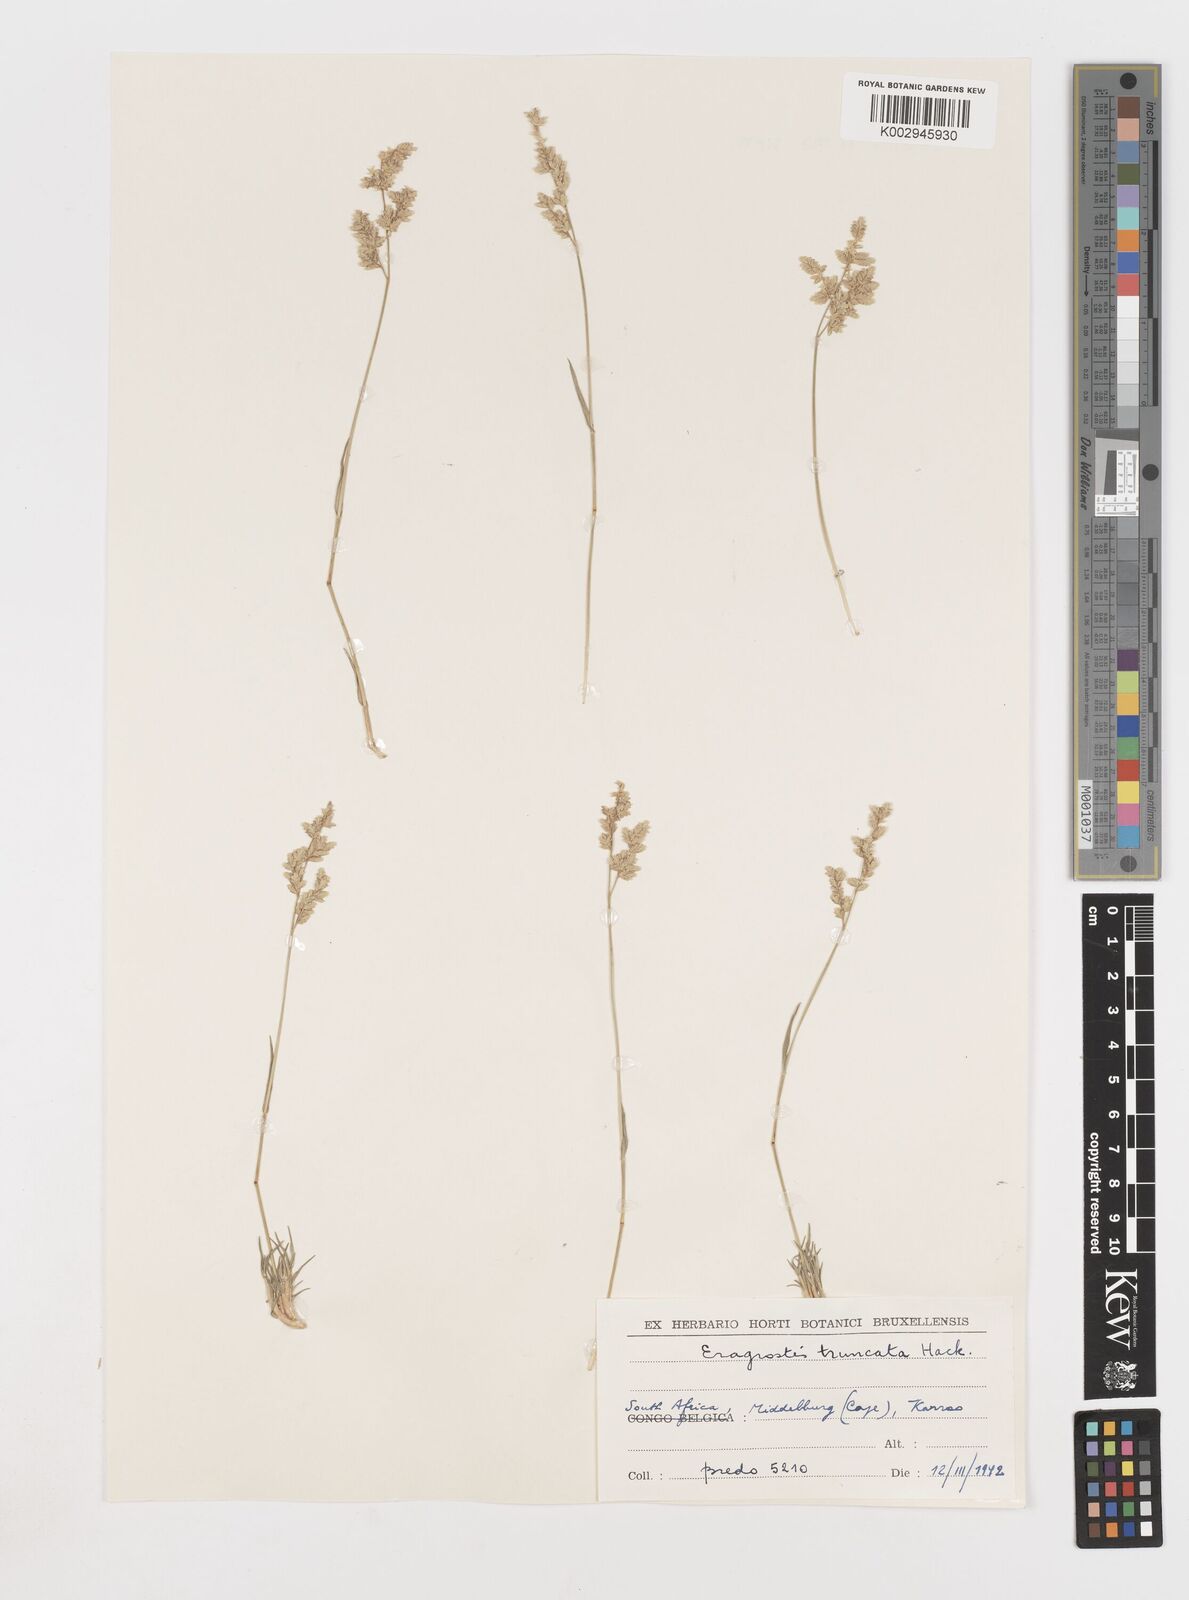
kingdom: Plantae
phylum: Tracheophyta
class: Liliopsida
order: Poales
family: Poaceae
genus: Eragrostis
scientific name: Eragrostis truncata
